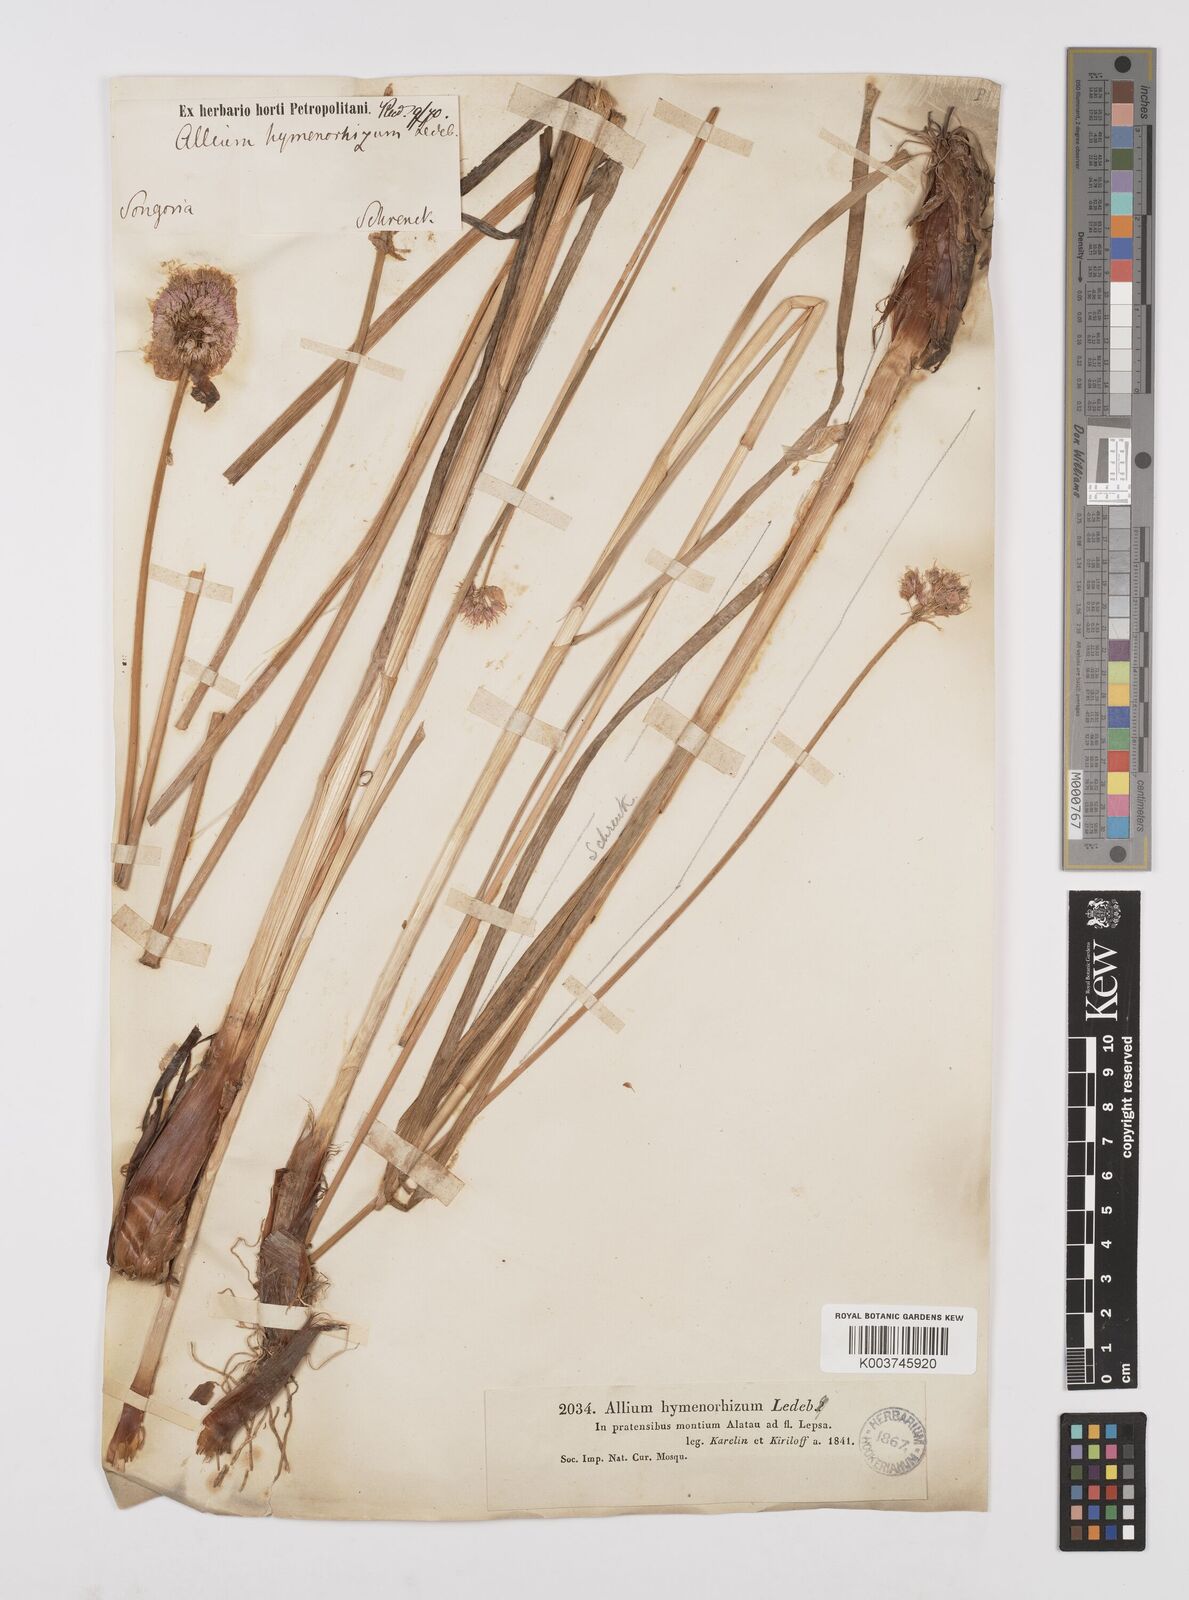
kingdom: Plantae
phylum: Tracheophyta
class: Liliopsida
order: Asparagales
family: Amaryllidaceae
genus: Allium
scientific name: Allium hymenorhizum
